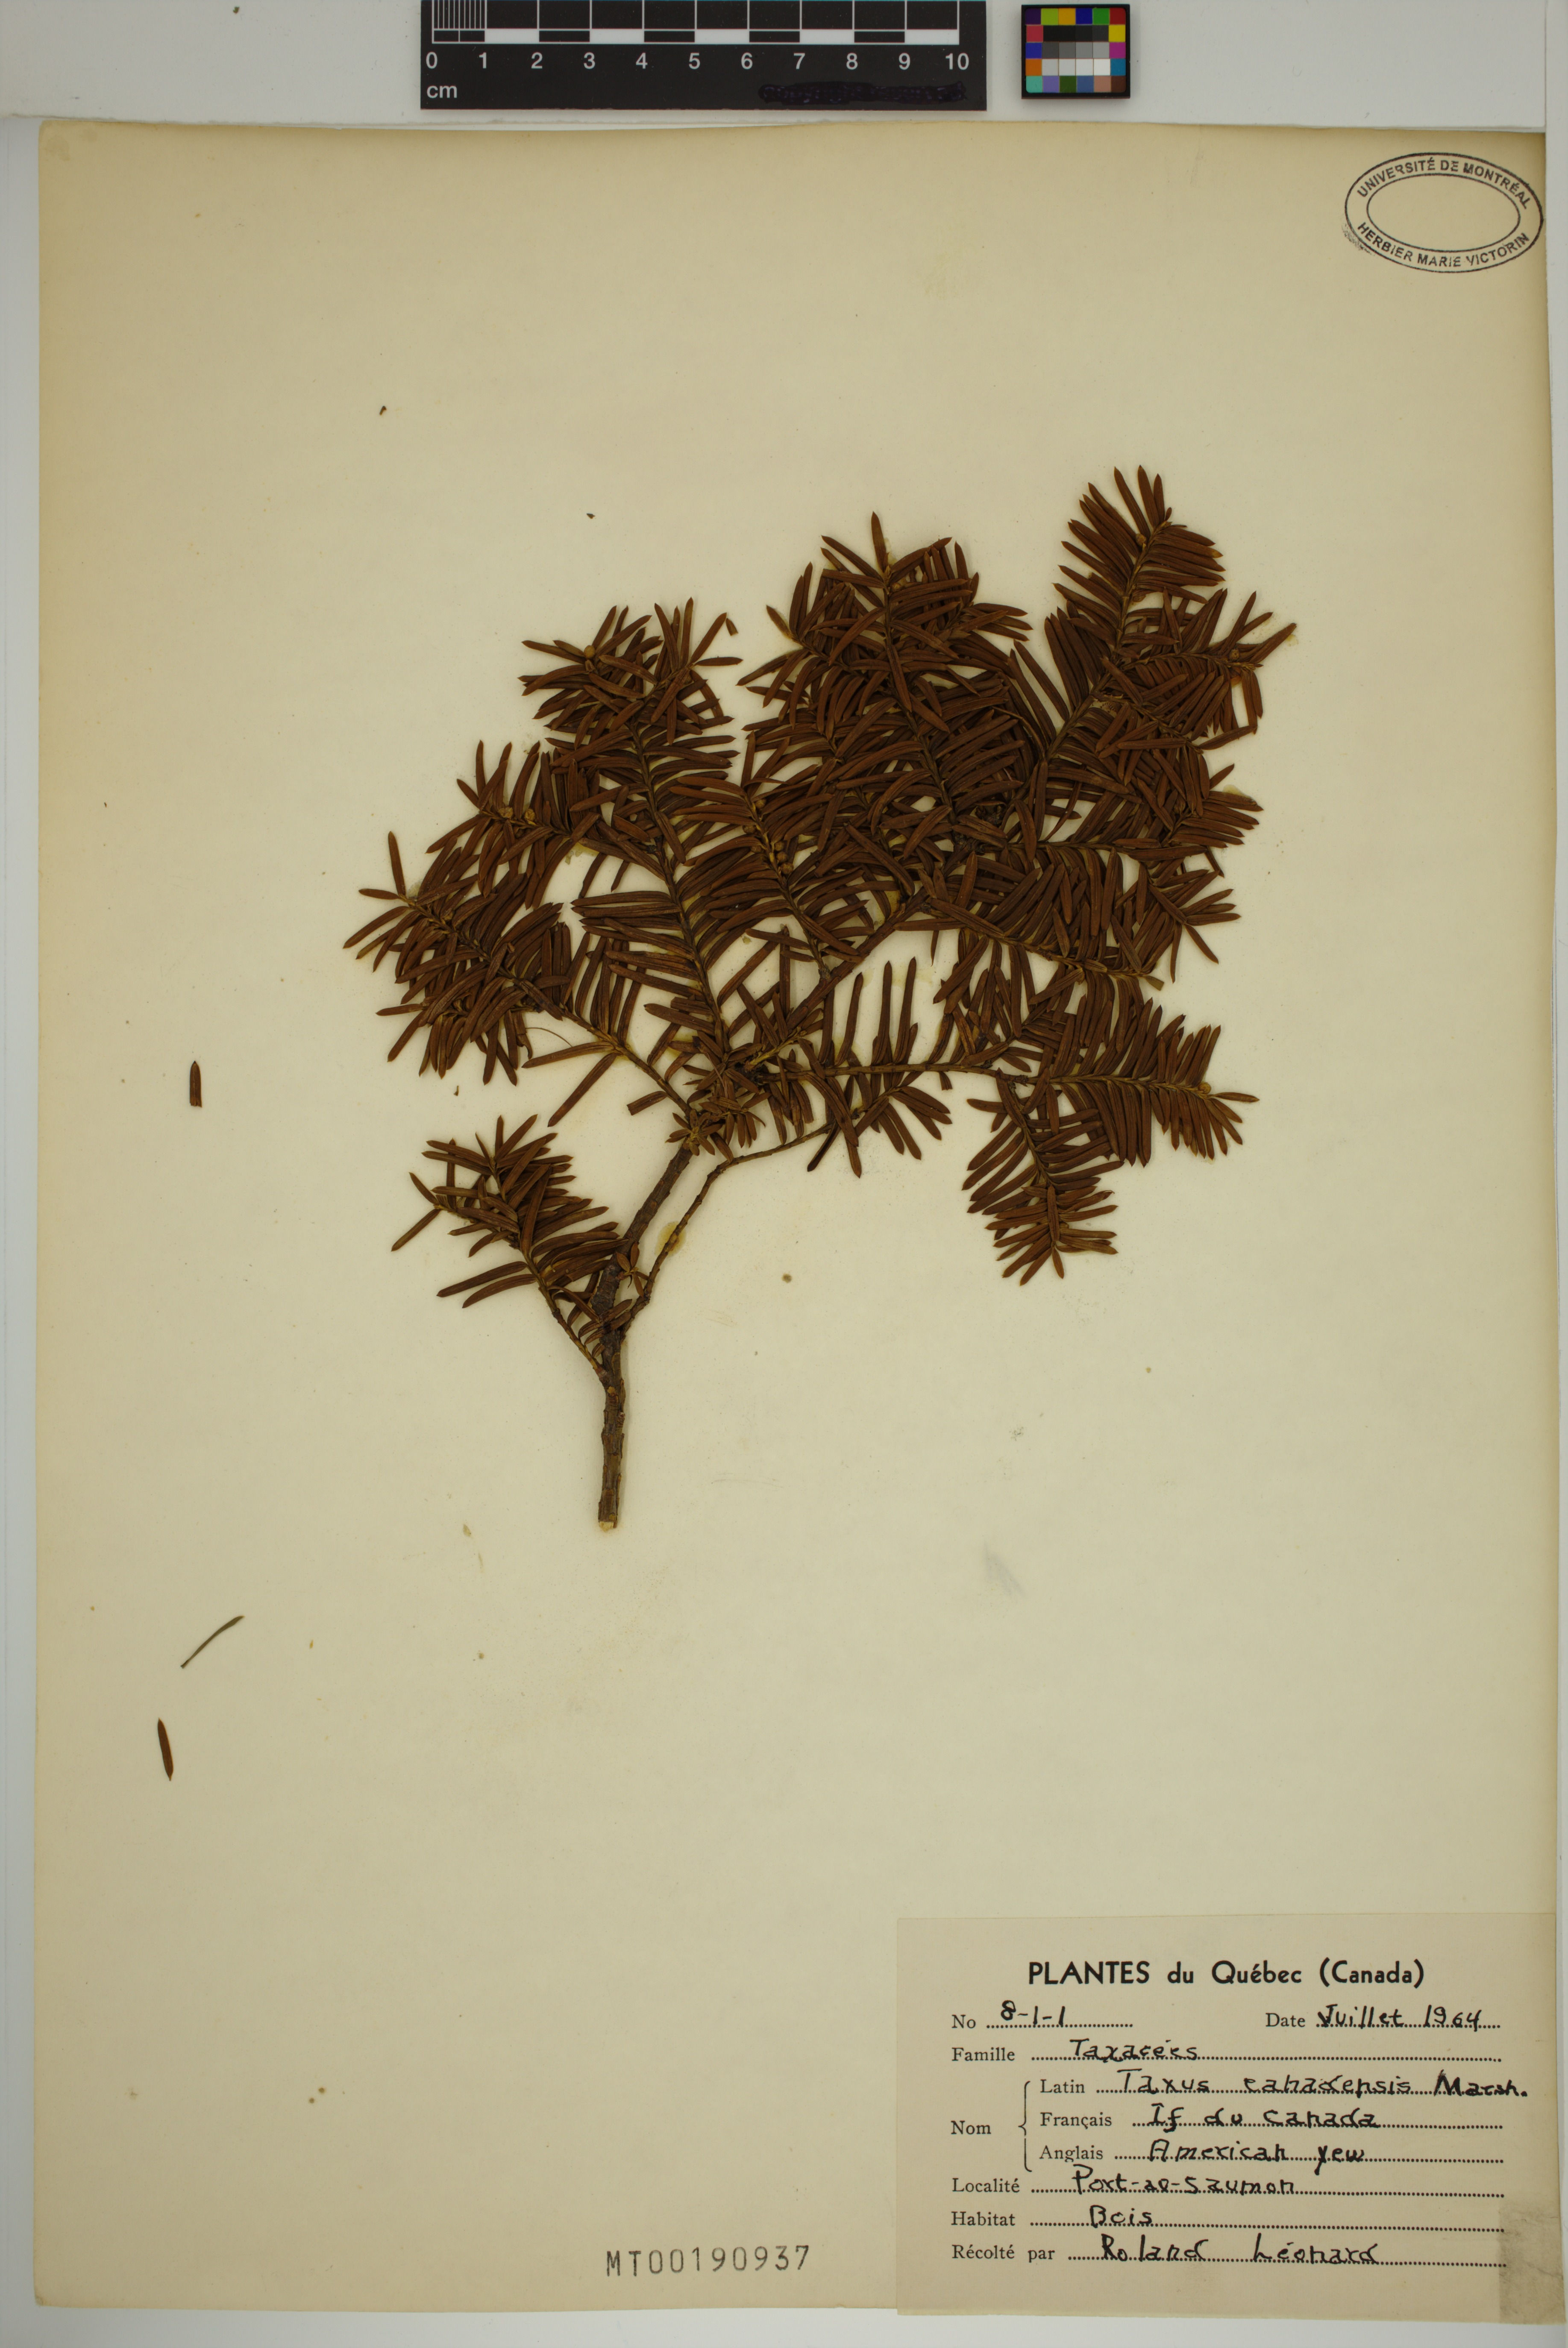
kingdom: Plantae
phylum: Tracheophyta
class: Pinopsida
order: Pinales
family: Taxaceae
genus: Taxus
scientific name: Taxus canadensis
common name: American yew
